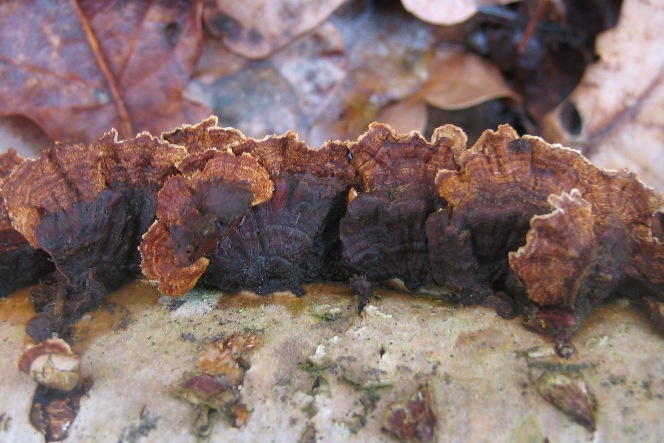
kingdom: Fungi
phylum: Basidiomycota
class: Agaricomycetes
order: Hymenochaetales
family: Hymenochaetaceae
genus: Hydnoporia
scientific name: Hydnoporia tabacina
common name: tobaksbrun ruslædersvamp
